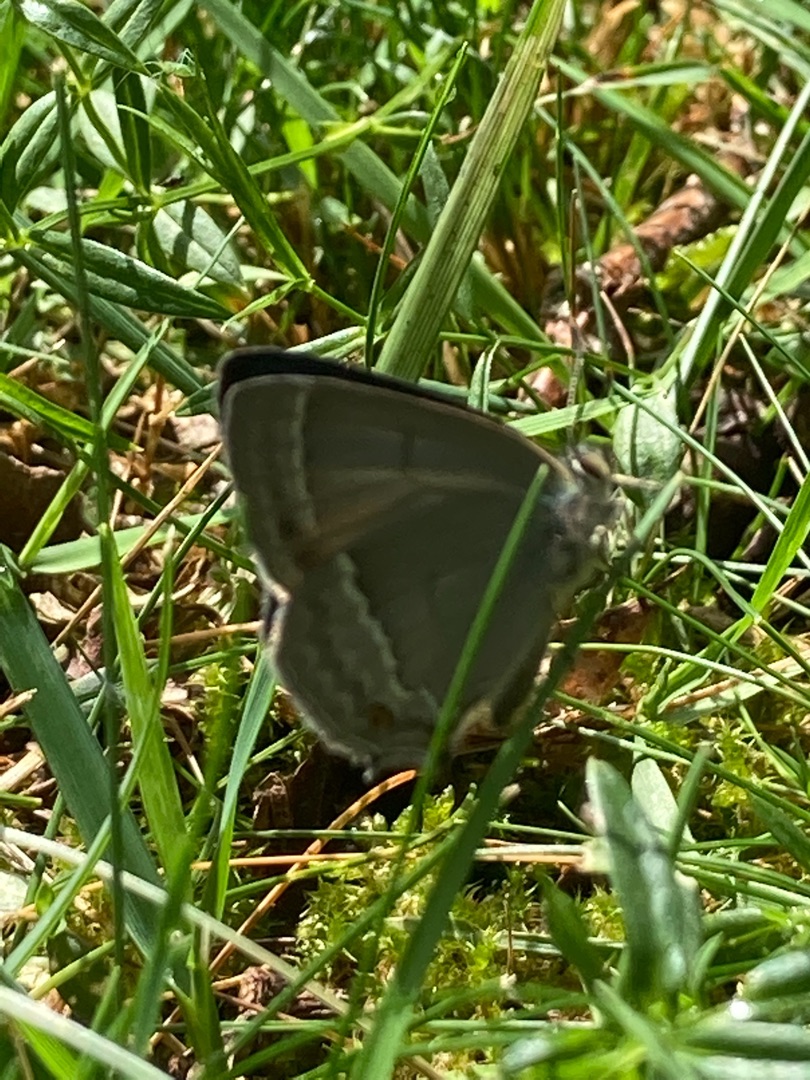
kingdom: Animalia
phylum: Arthropoda
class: Insecta
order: Lepidoptera
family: Lycaenidae
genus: Quercusia
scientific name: Quercusia quercus
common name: Blåhale
